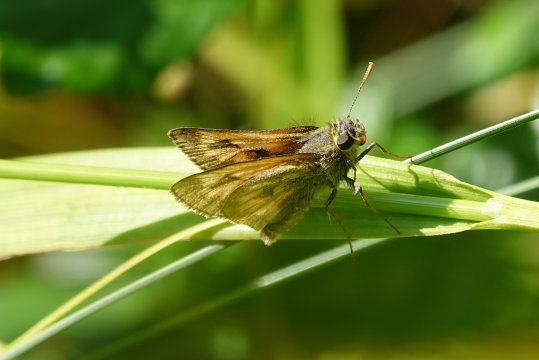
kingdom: Animalia
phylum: Arthropoda
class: Insecta
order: Lepidoptera
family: Hesperiidae
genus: Polites
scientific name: Polites
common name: Long Dash Skipper
